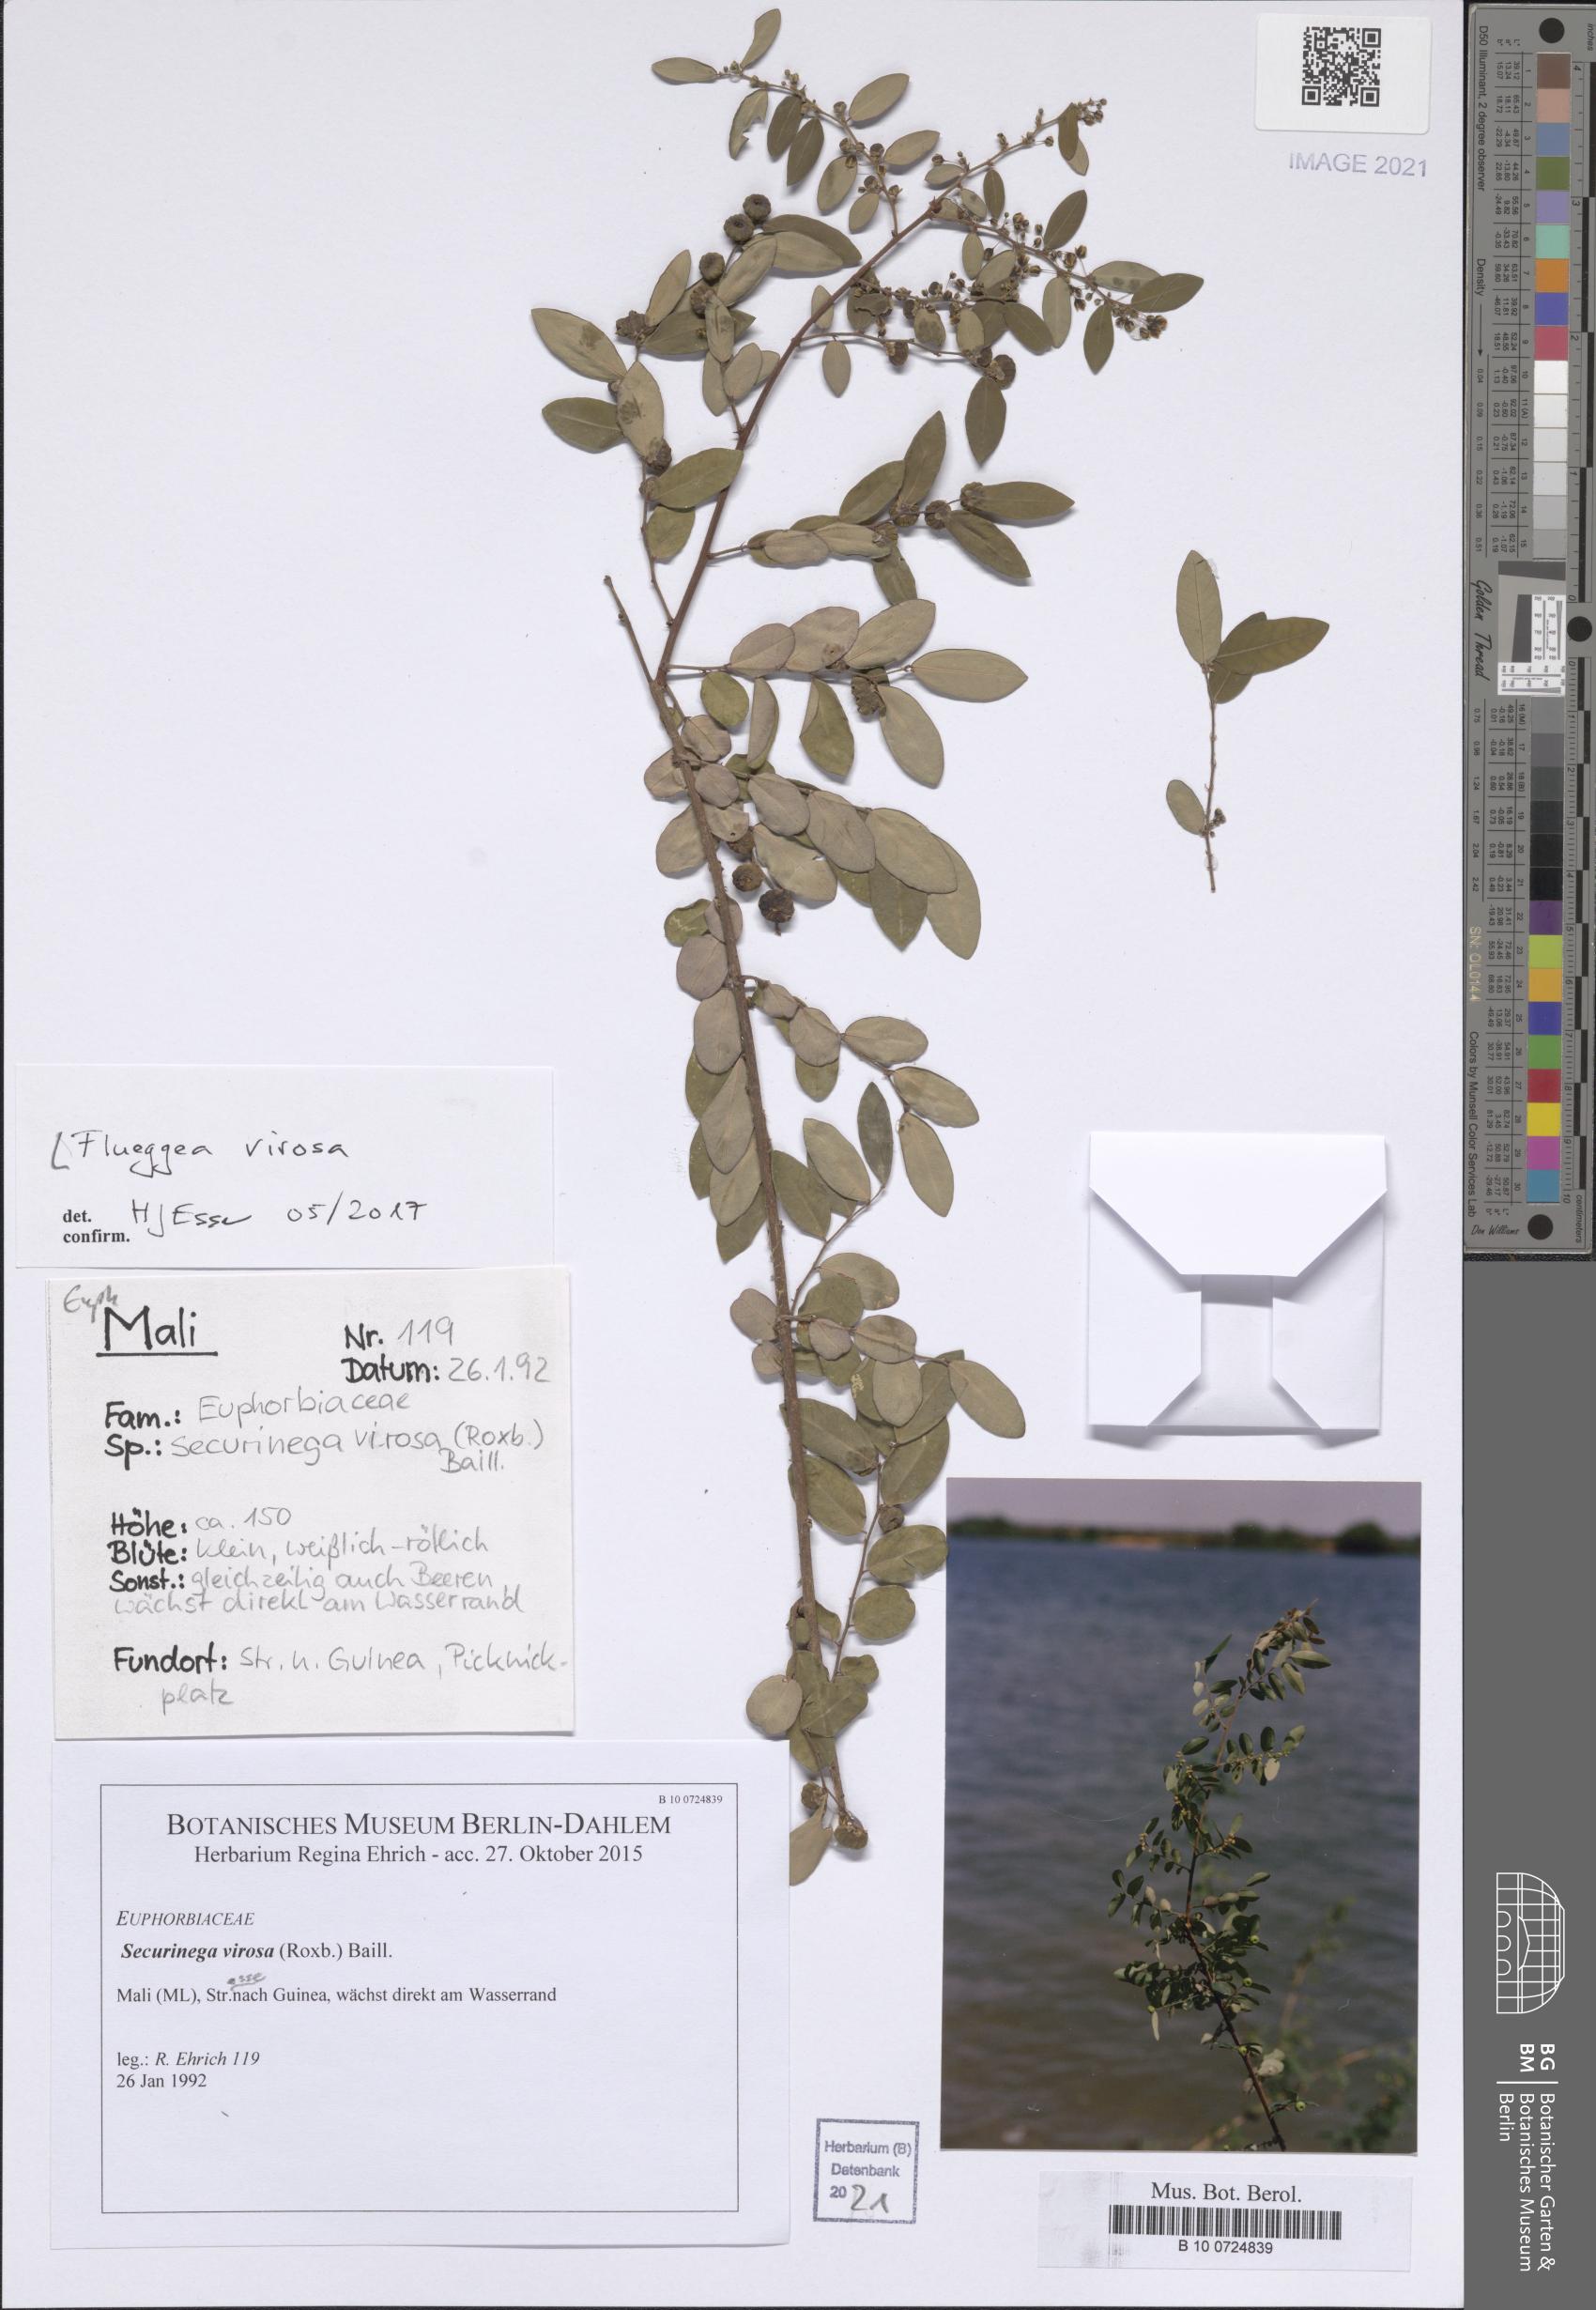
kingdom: Plantae
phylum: Tracheophyta
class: Magnoliopsida
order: Malpighiales
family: Phyllanthaceae
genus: Flueggea
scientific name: Flueggea virosa
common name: Common bushweed
